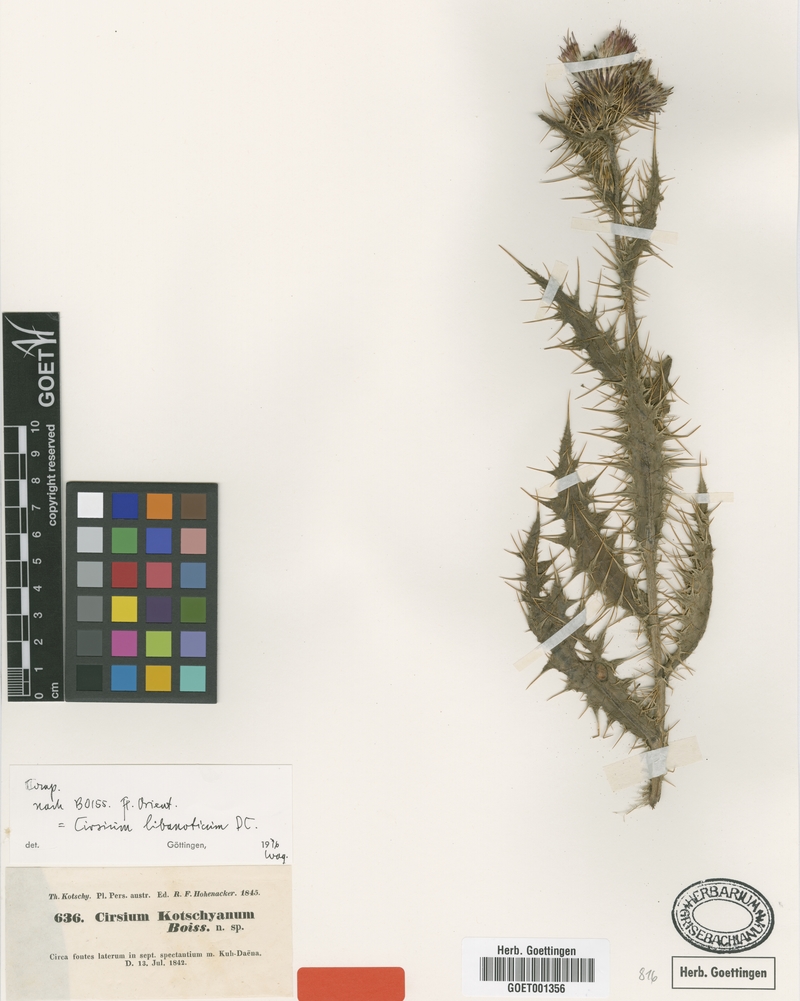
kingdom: Plantae
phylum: Tracheophyta
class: Magnoliopsida
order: Asterales
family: Asteraceae
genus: Cirsium
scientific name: Cirsium libanoticum
